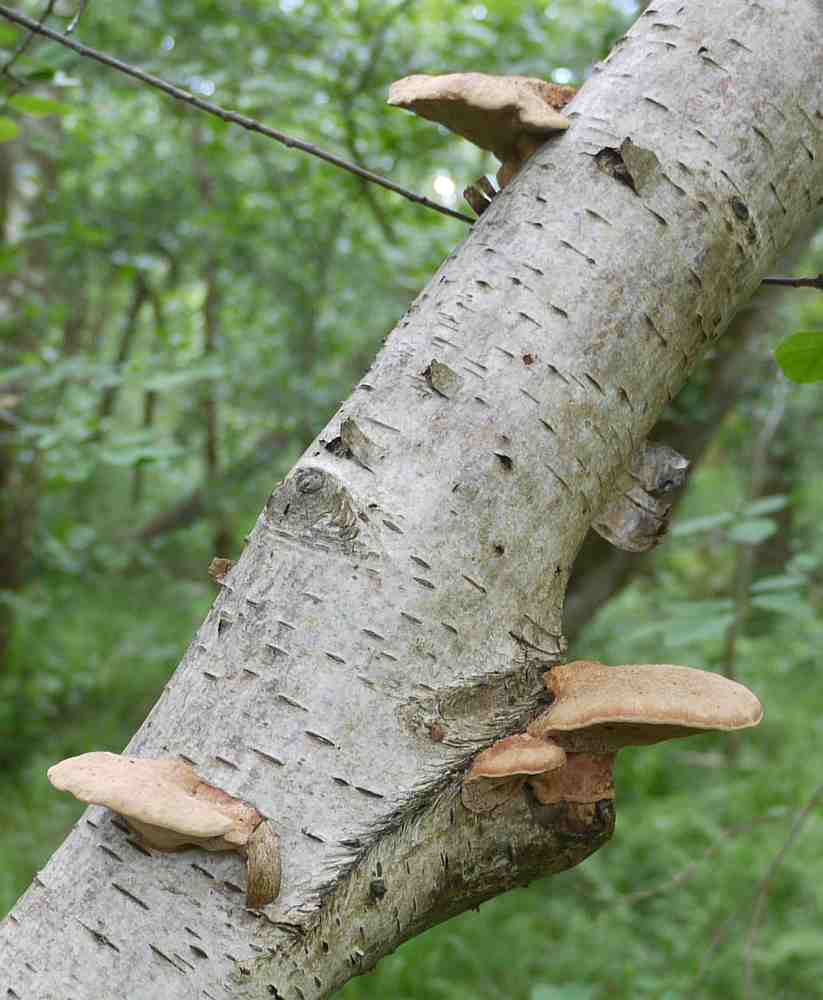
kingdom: Fungi
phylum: Basidiomycota
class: Agaricomycetes
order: Polyporales
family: Phanerochaetaceae
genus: Hapalopilus
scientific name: Hapalopilus rutilans
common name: rødlig okkerporesvamp
